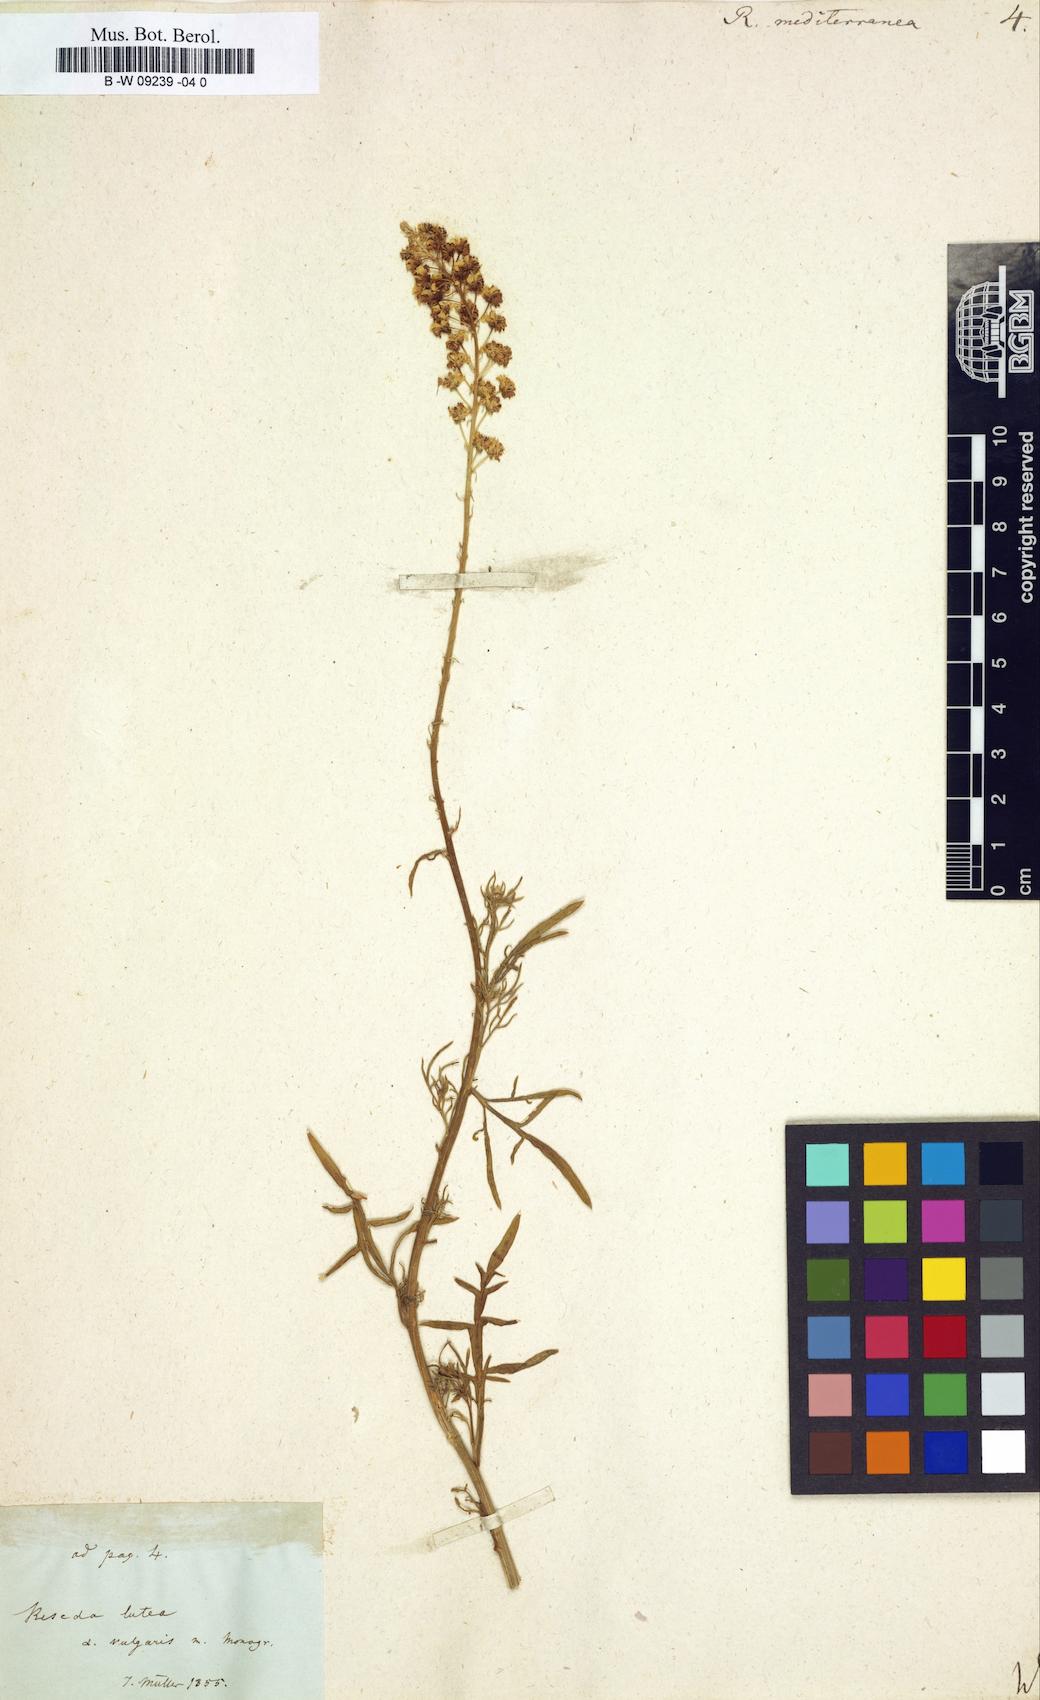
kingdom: Plantae
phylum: Tracheophyta
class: Magnoliopsida
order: Brassicales
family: Resedaceae
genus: Reseda
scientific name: Reseda mediterranea
